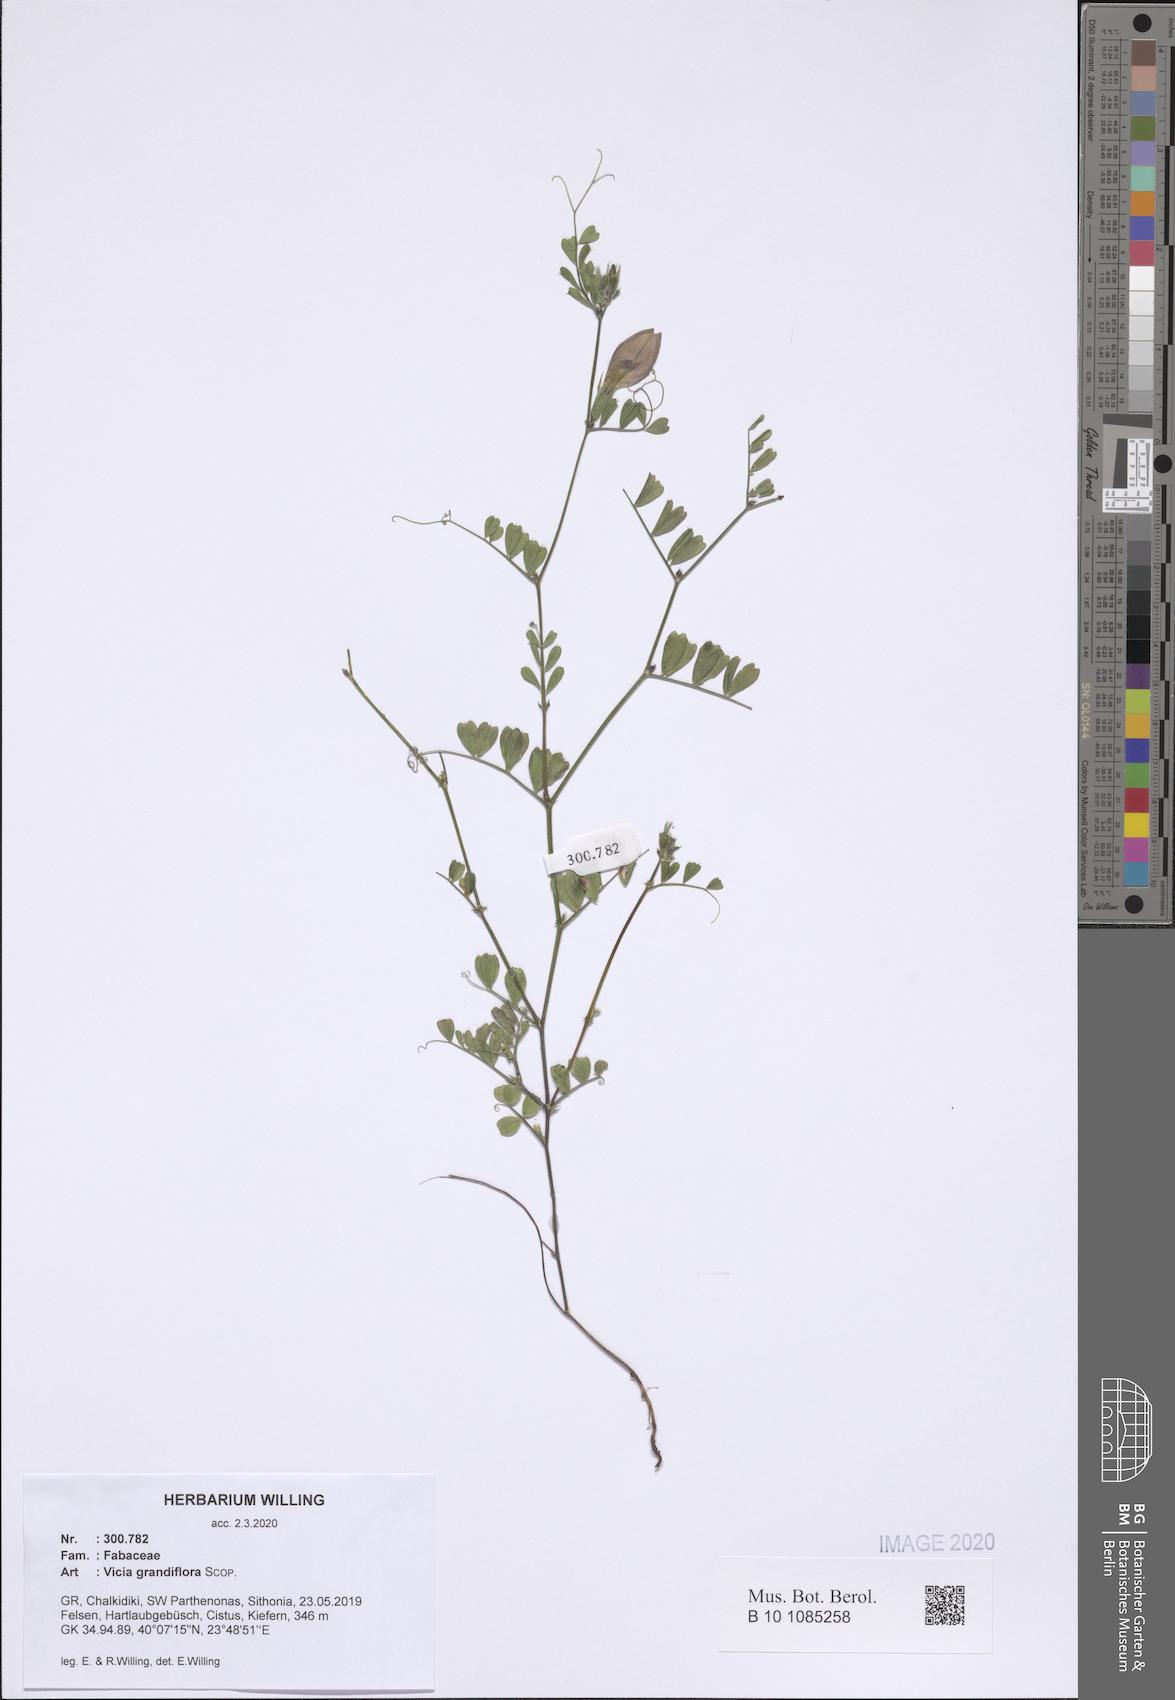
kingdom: Plantae
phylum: Tracheophyta
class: Magnoliopsida
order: Fabales
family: Fabaceae
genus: Vicia
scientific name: Vicia grandiflora
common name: Large yellow vetch
